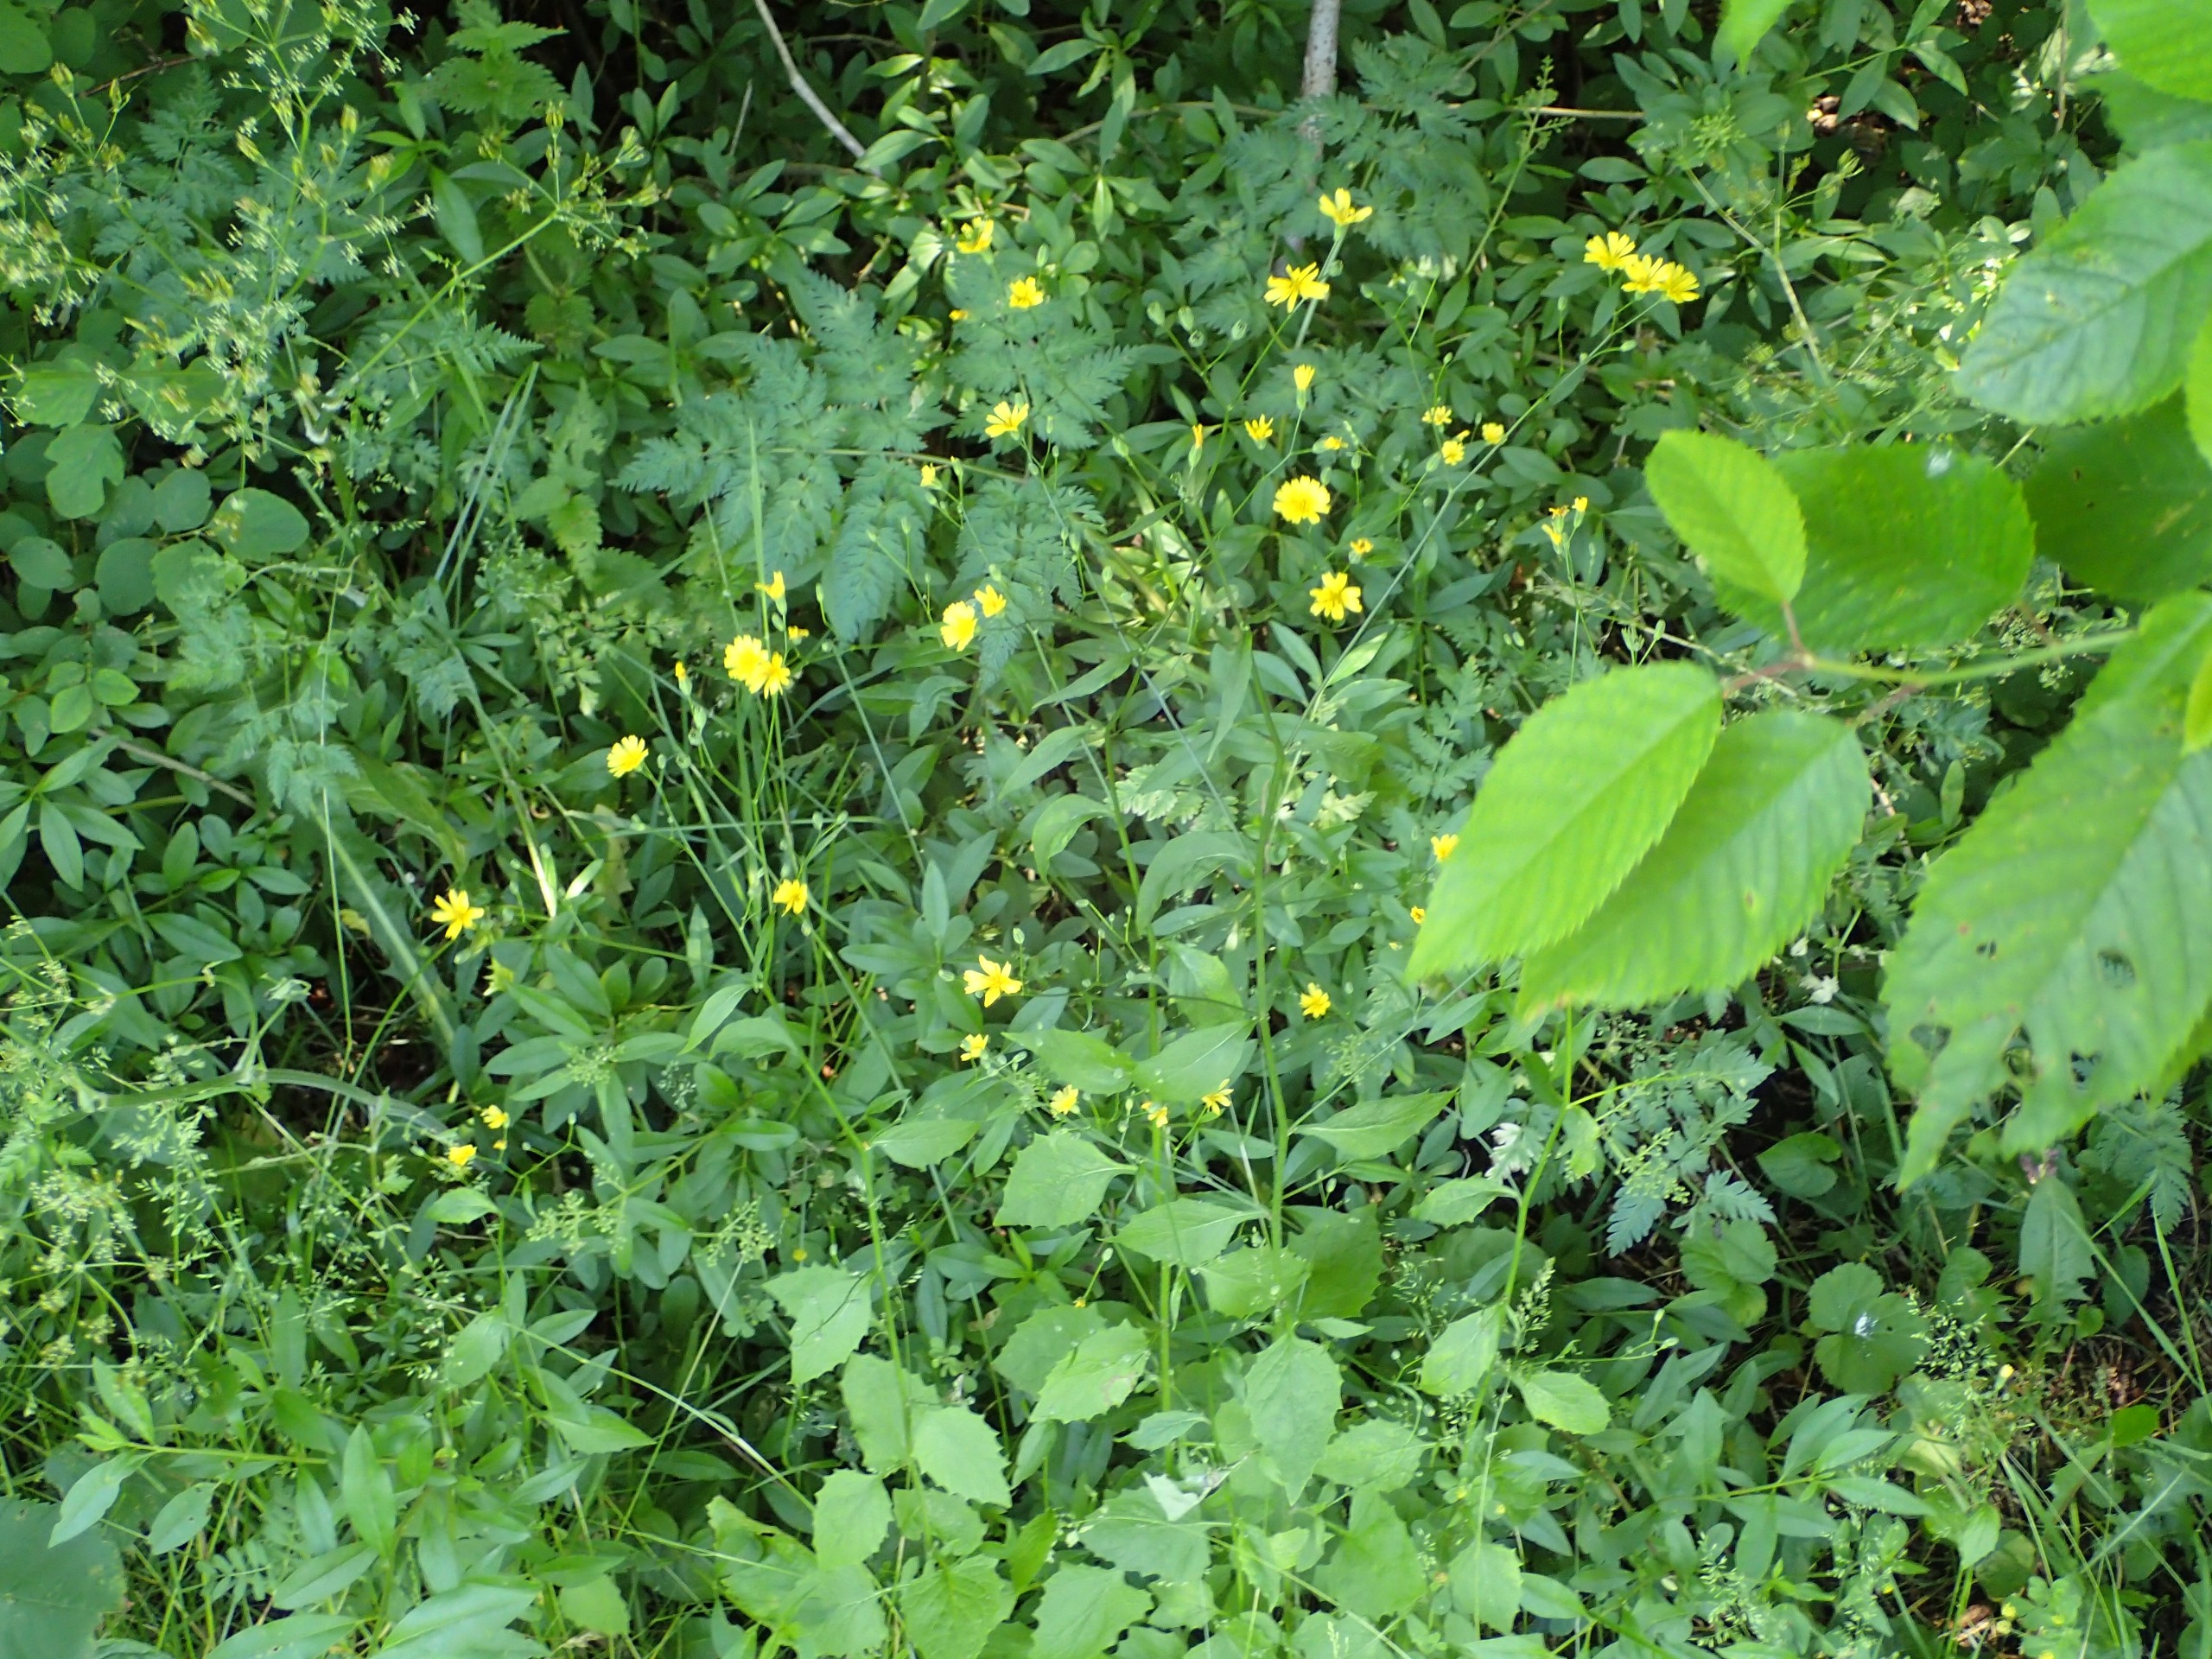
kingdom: Plantae
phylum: Tracheophyta
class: Magnoliopsida
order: Asterales
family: Asteraceae
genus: Lapsana
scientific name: Lapsana communis
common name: Haremad
